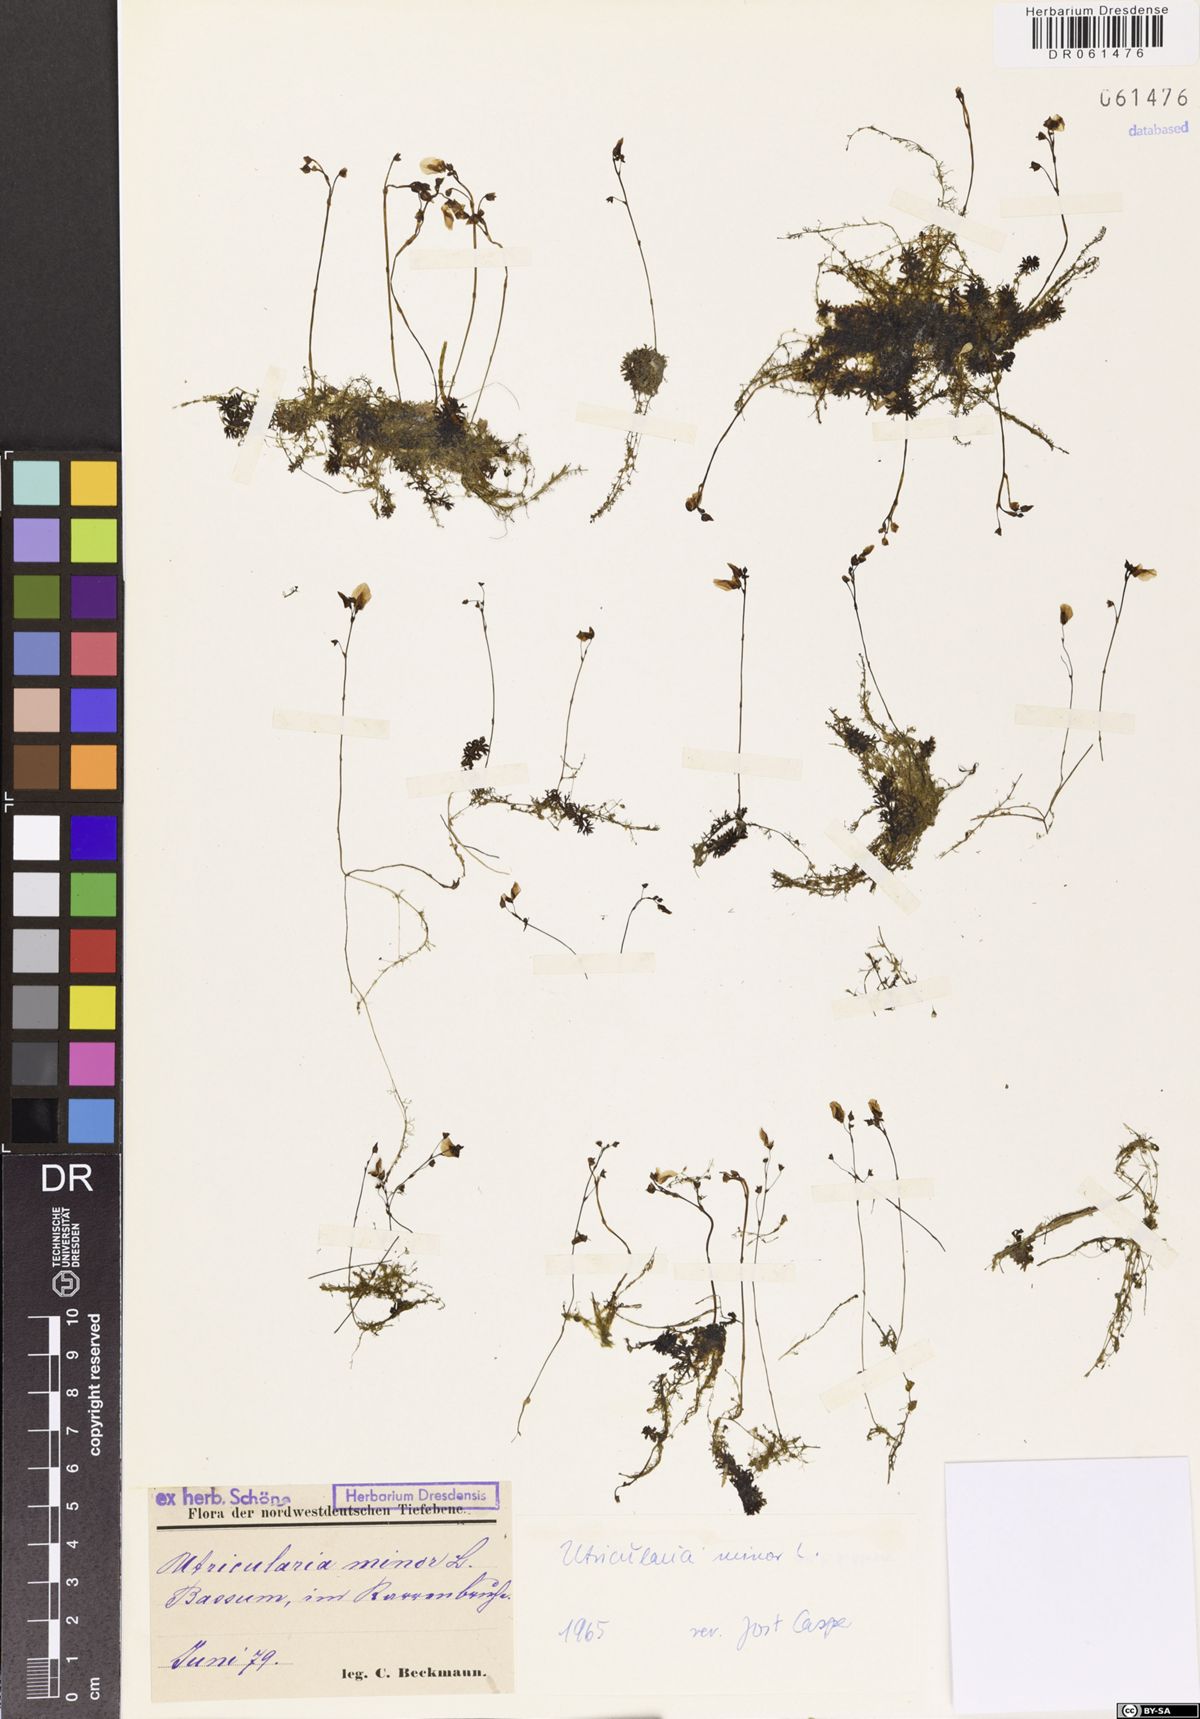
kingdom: Plantae
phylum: Tracheophyta
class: Magnoliopsida
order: Lamiales
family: Lentibulariaceae
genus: Utricularia
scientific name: Utricularia minor
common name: Lesser bladderwort
